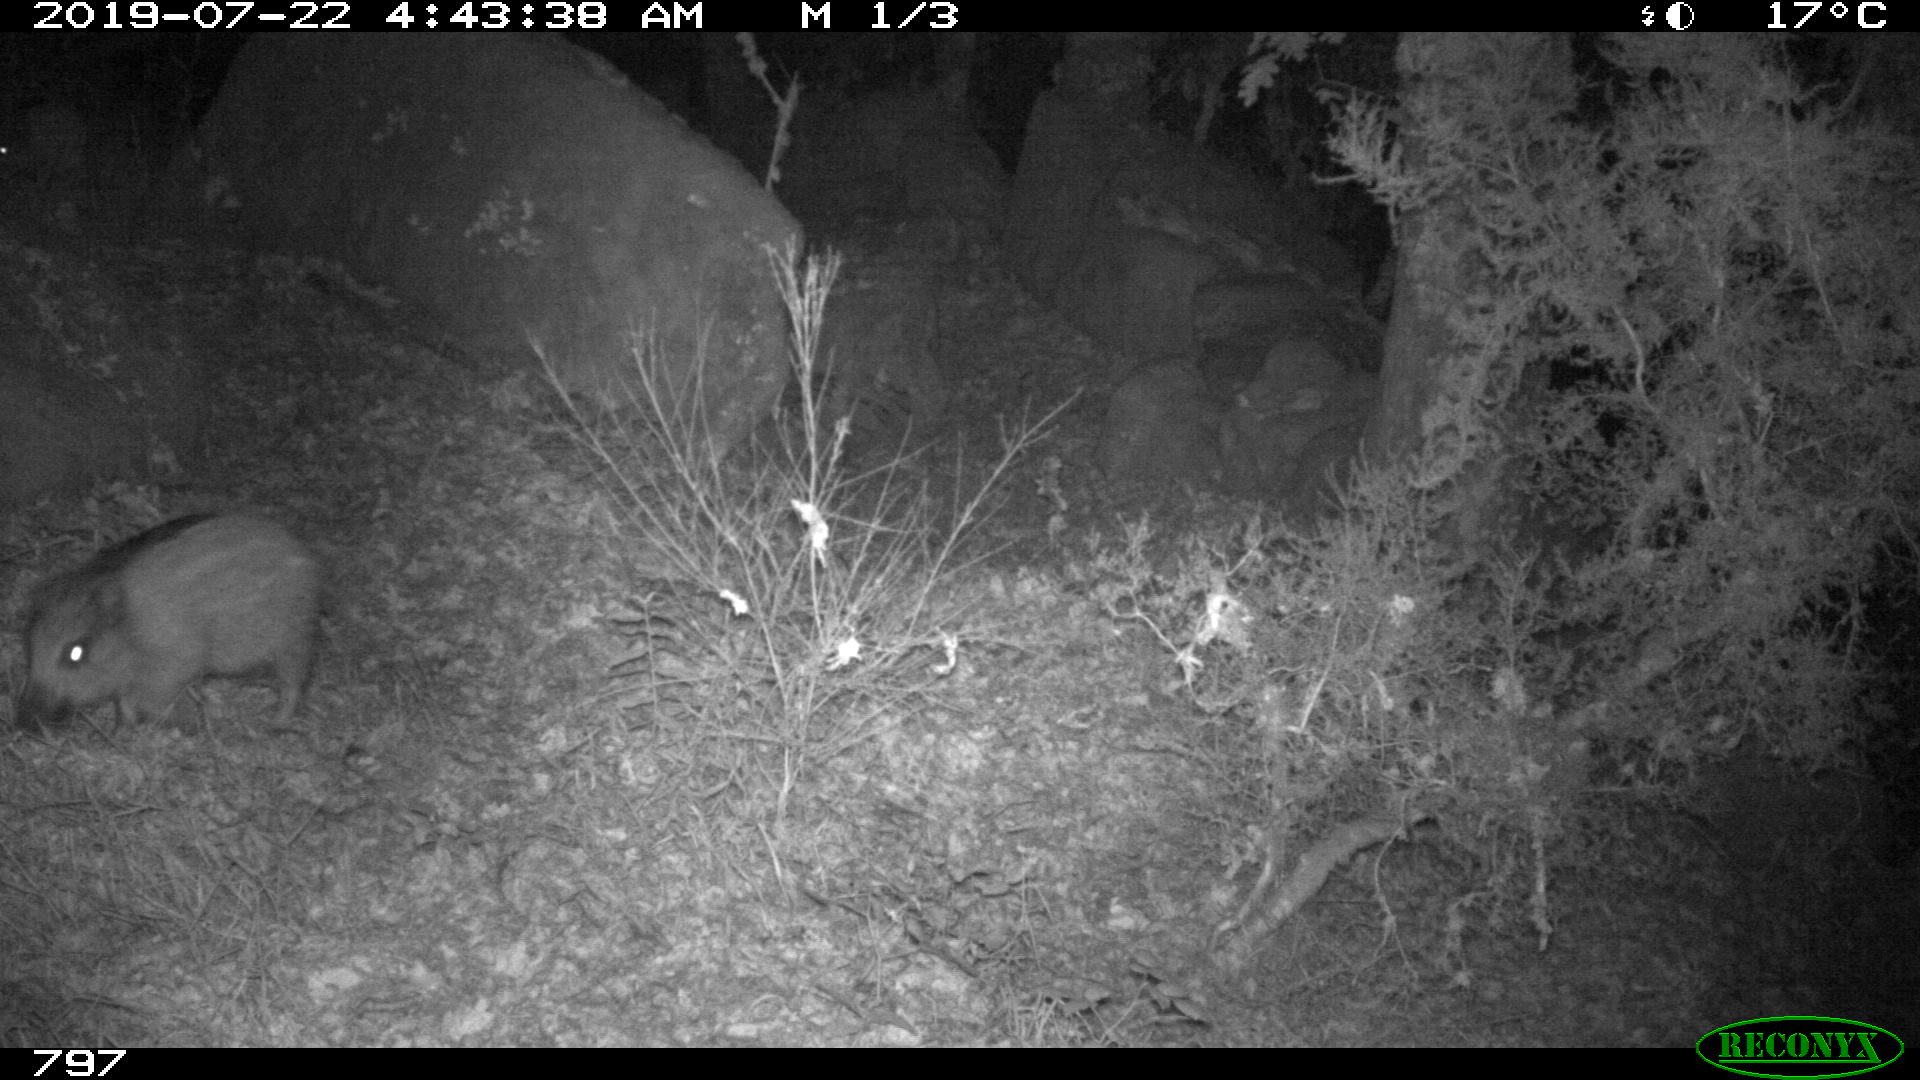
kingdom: Animalia
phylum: Chordata
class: Mammalia
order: Artiodactyla
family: Suidae
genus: Sus
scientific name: Sus scrofa
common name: Wild boar
